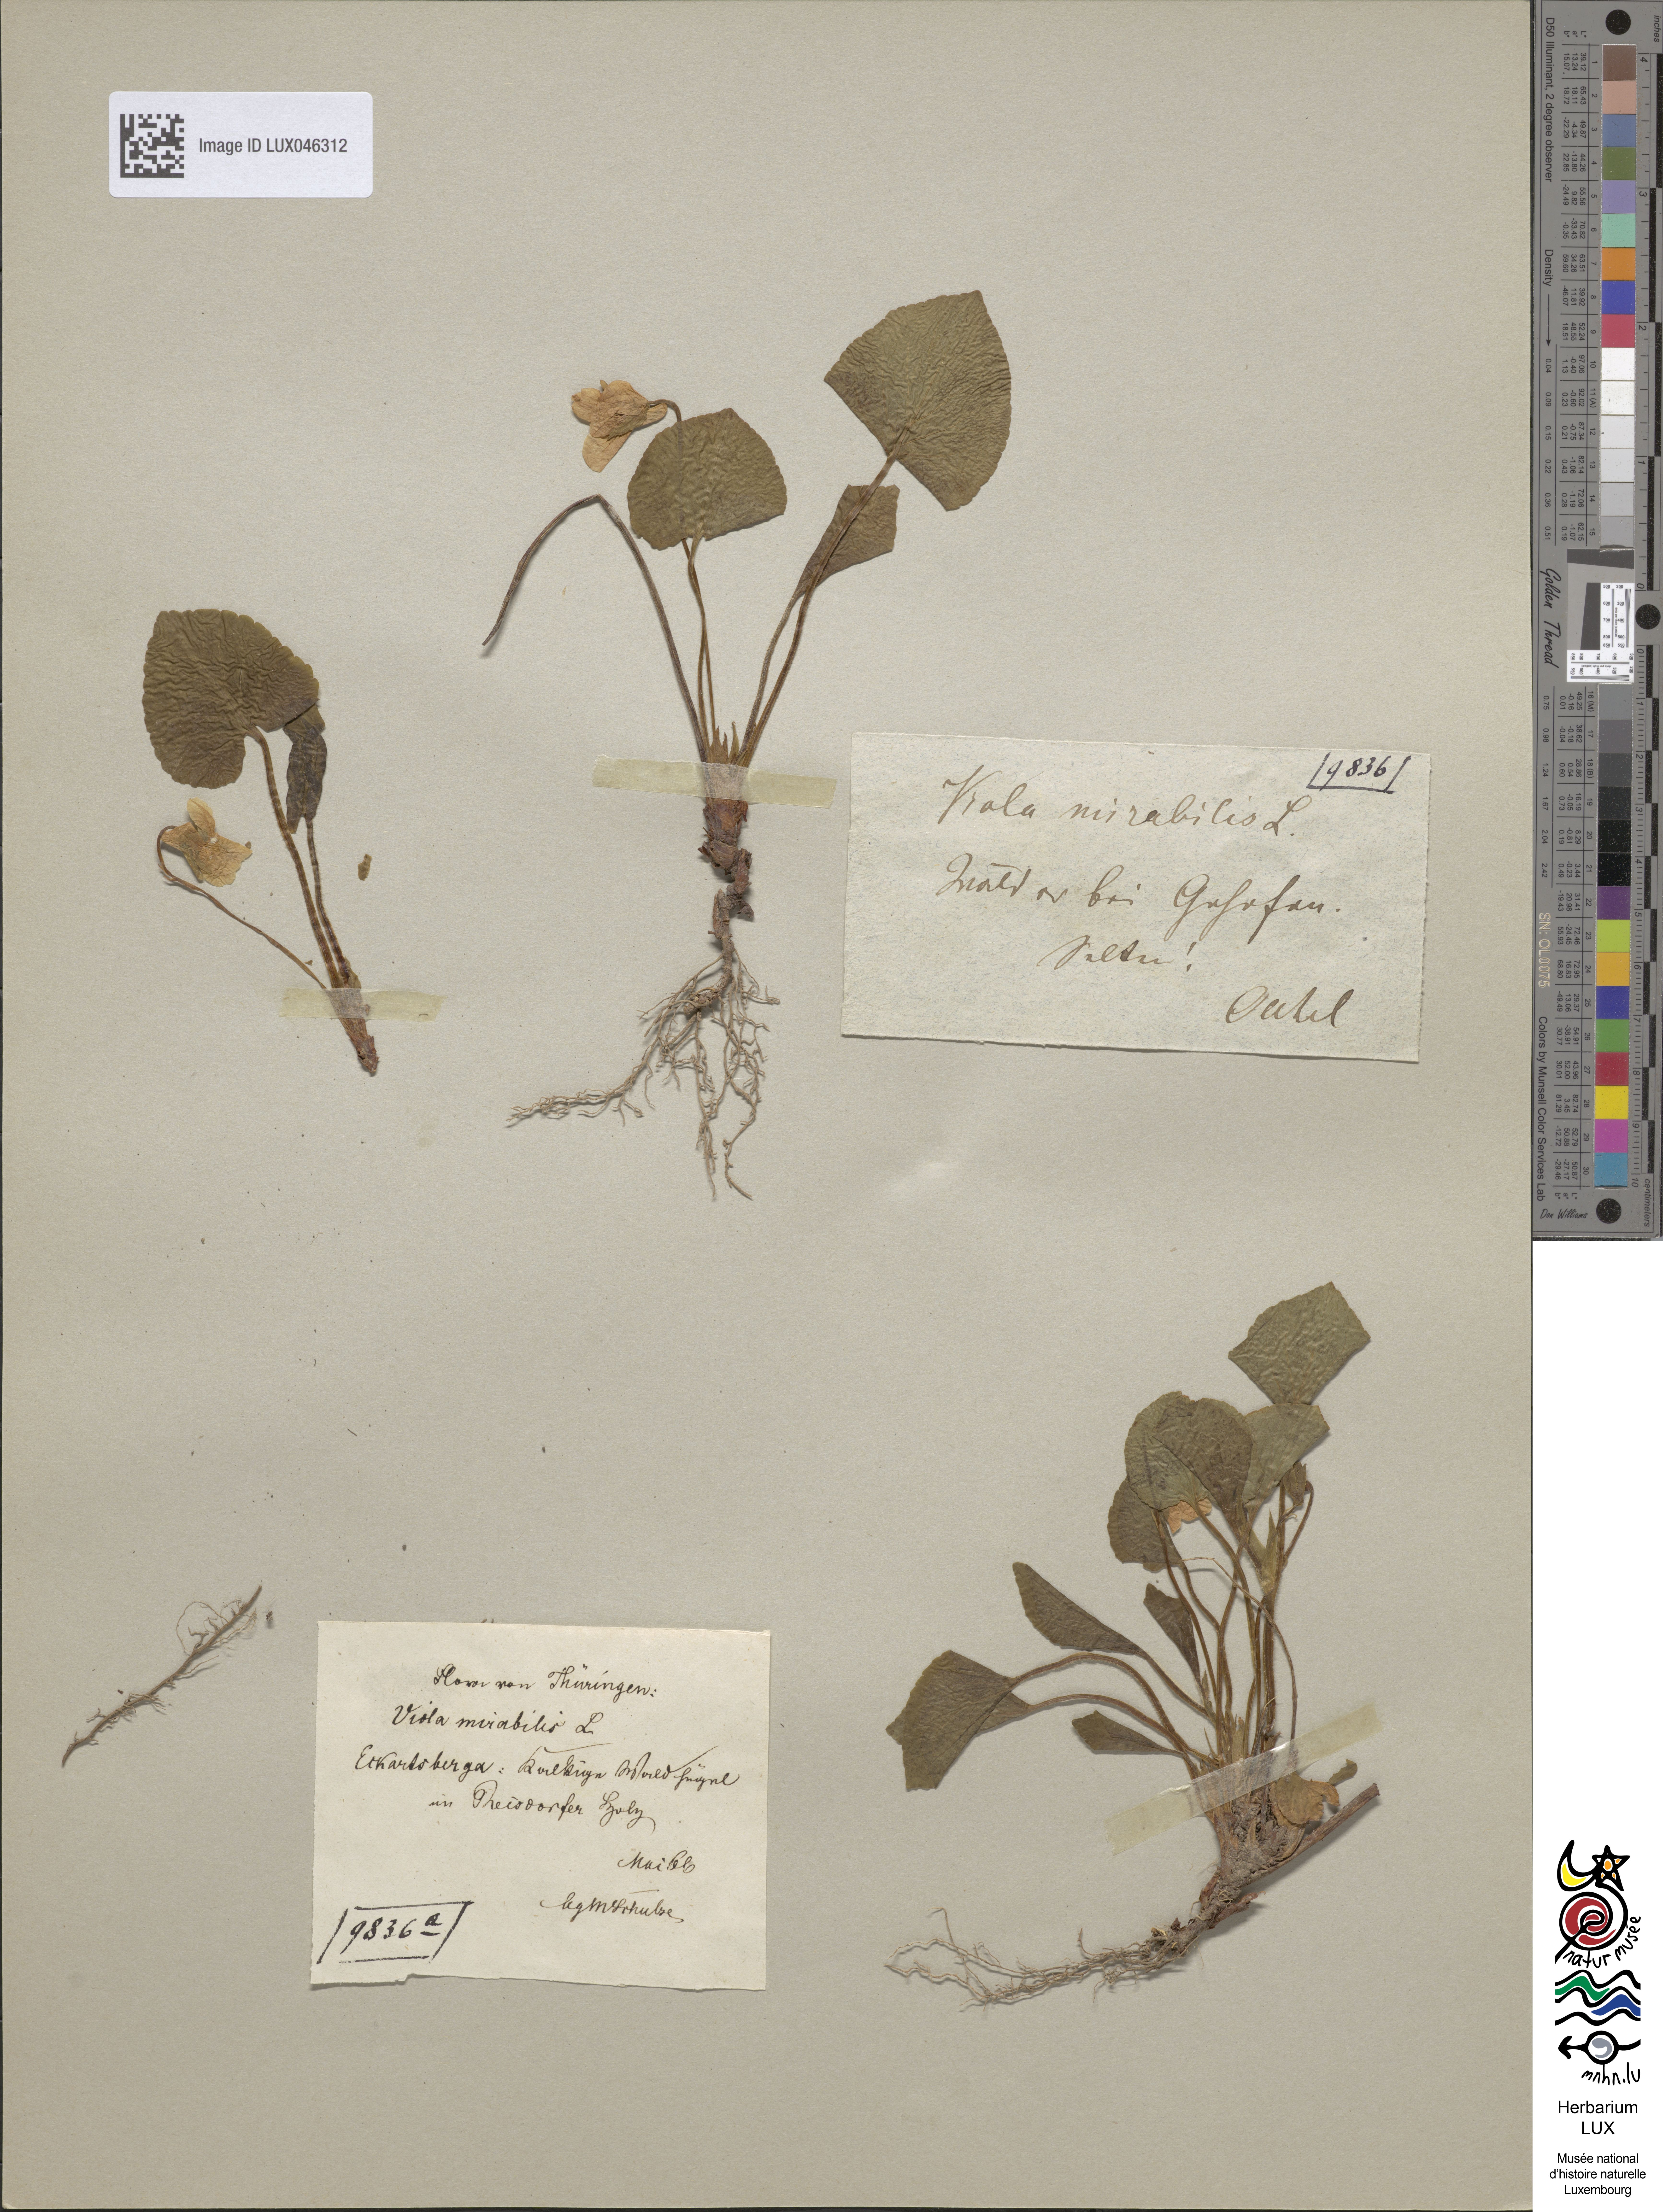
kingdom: Plantae
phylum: Tracheophyta
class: Magnoliopsida
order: Malpighiales
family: Violaceae
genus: Viola
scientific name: Viola mirabilis
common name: Wonder violet
